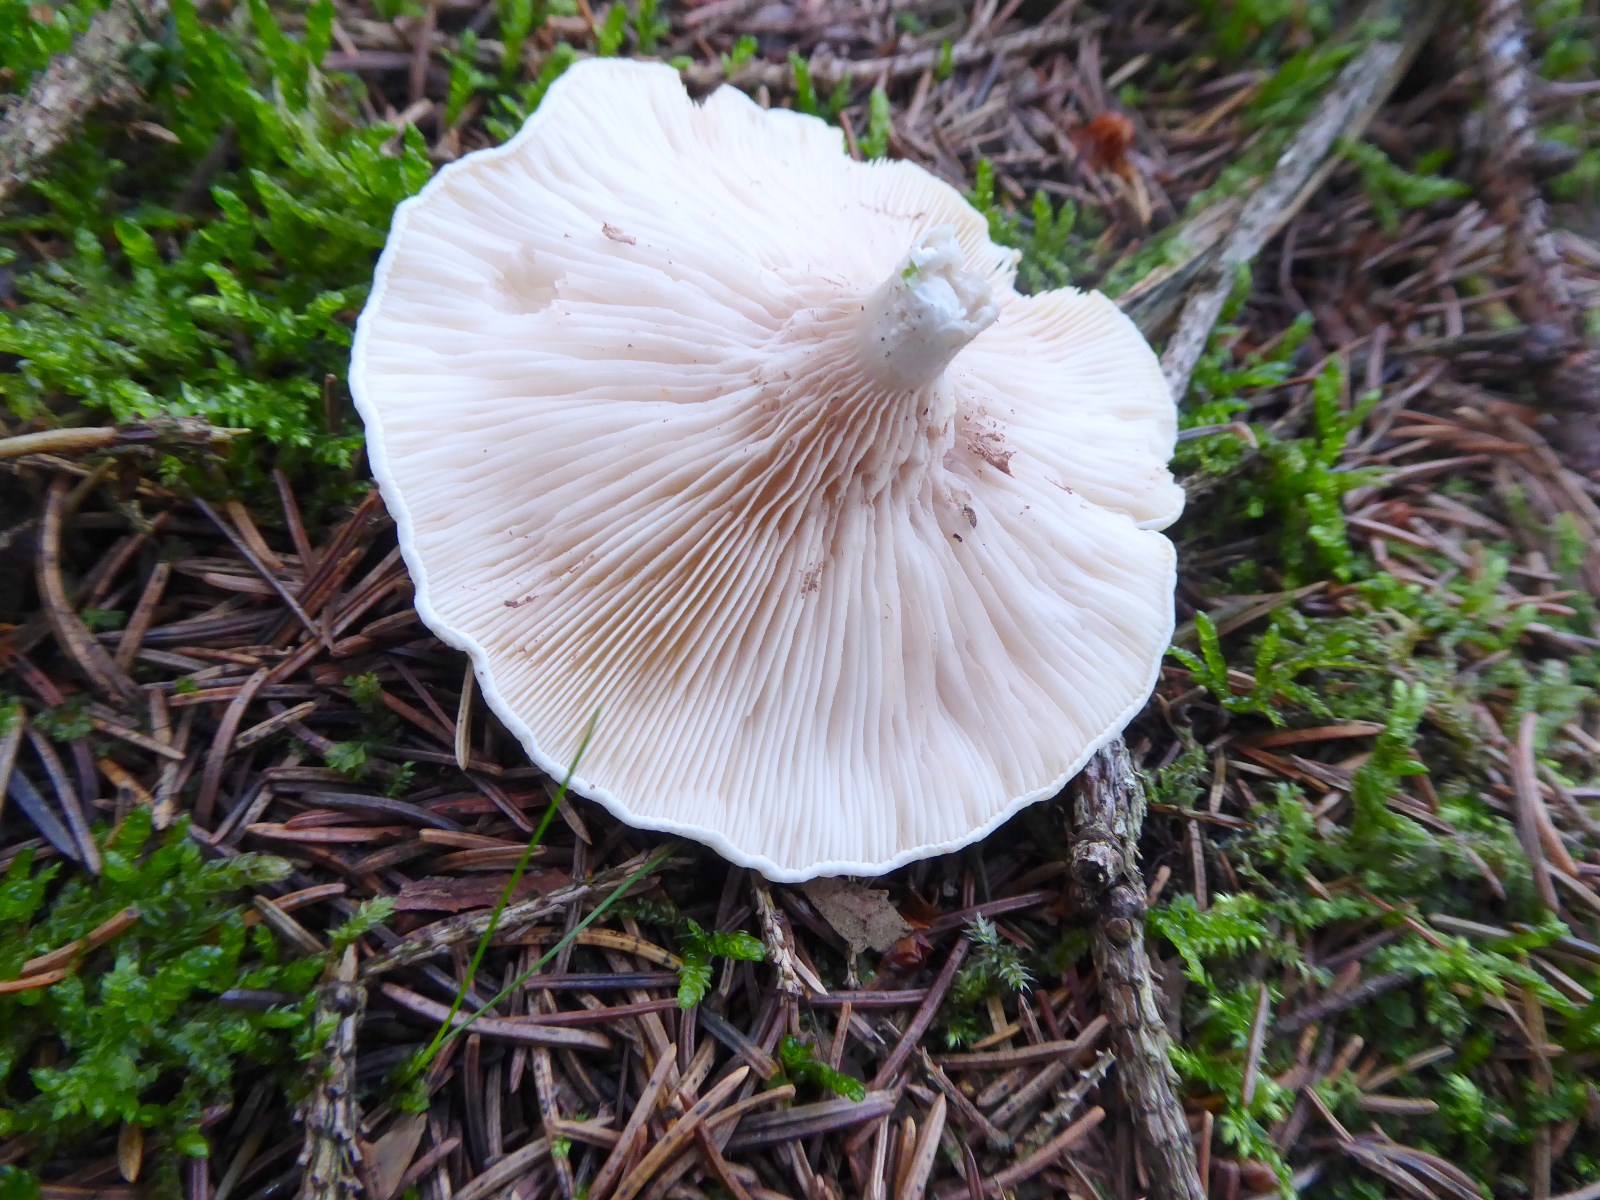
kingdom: Fungi
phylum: Basidiomycota
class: Agaricomycetes
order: Agaricales
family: Entolomataceae
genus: Clitopilus
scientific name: Clitopilus prunulus
